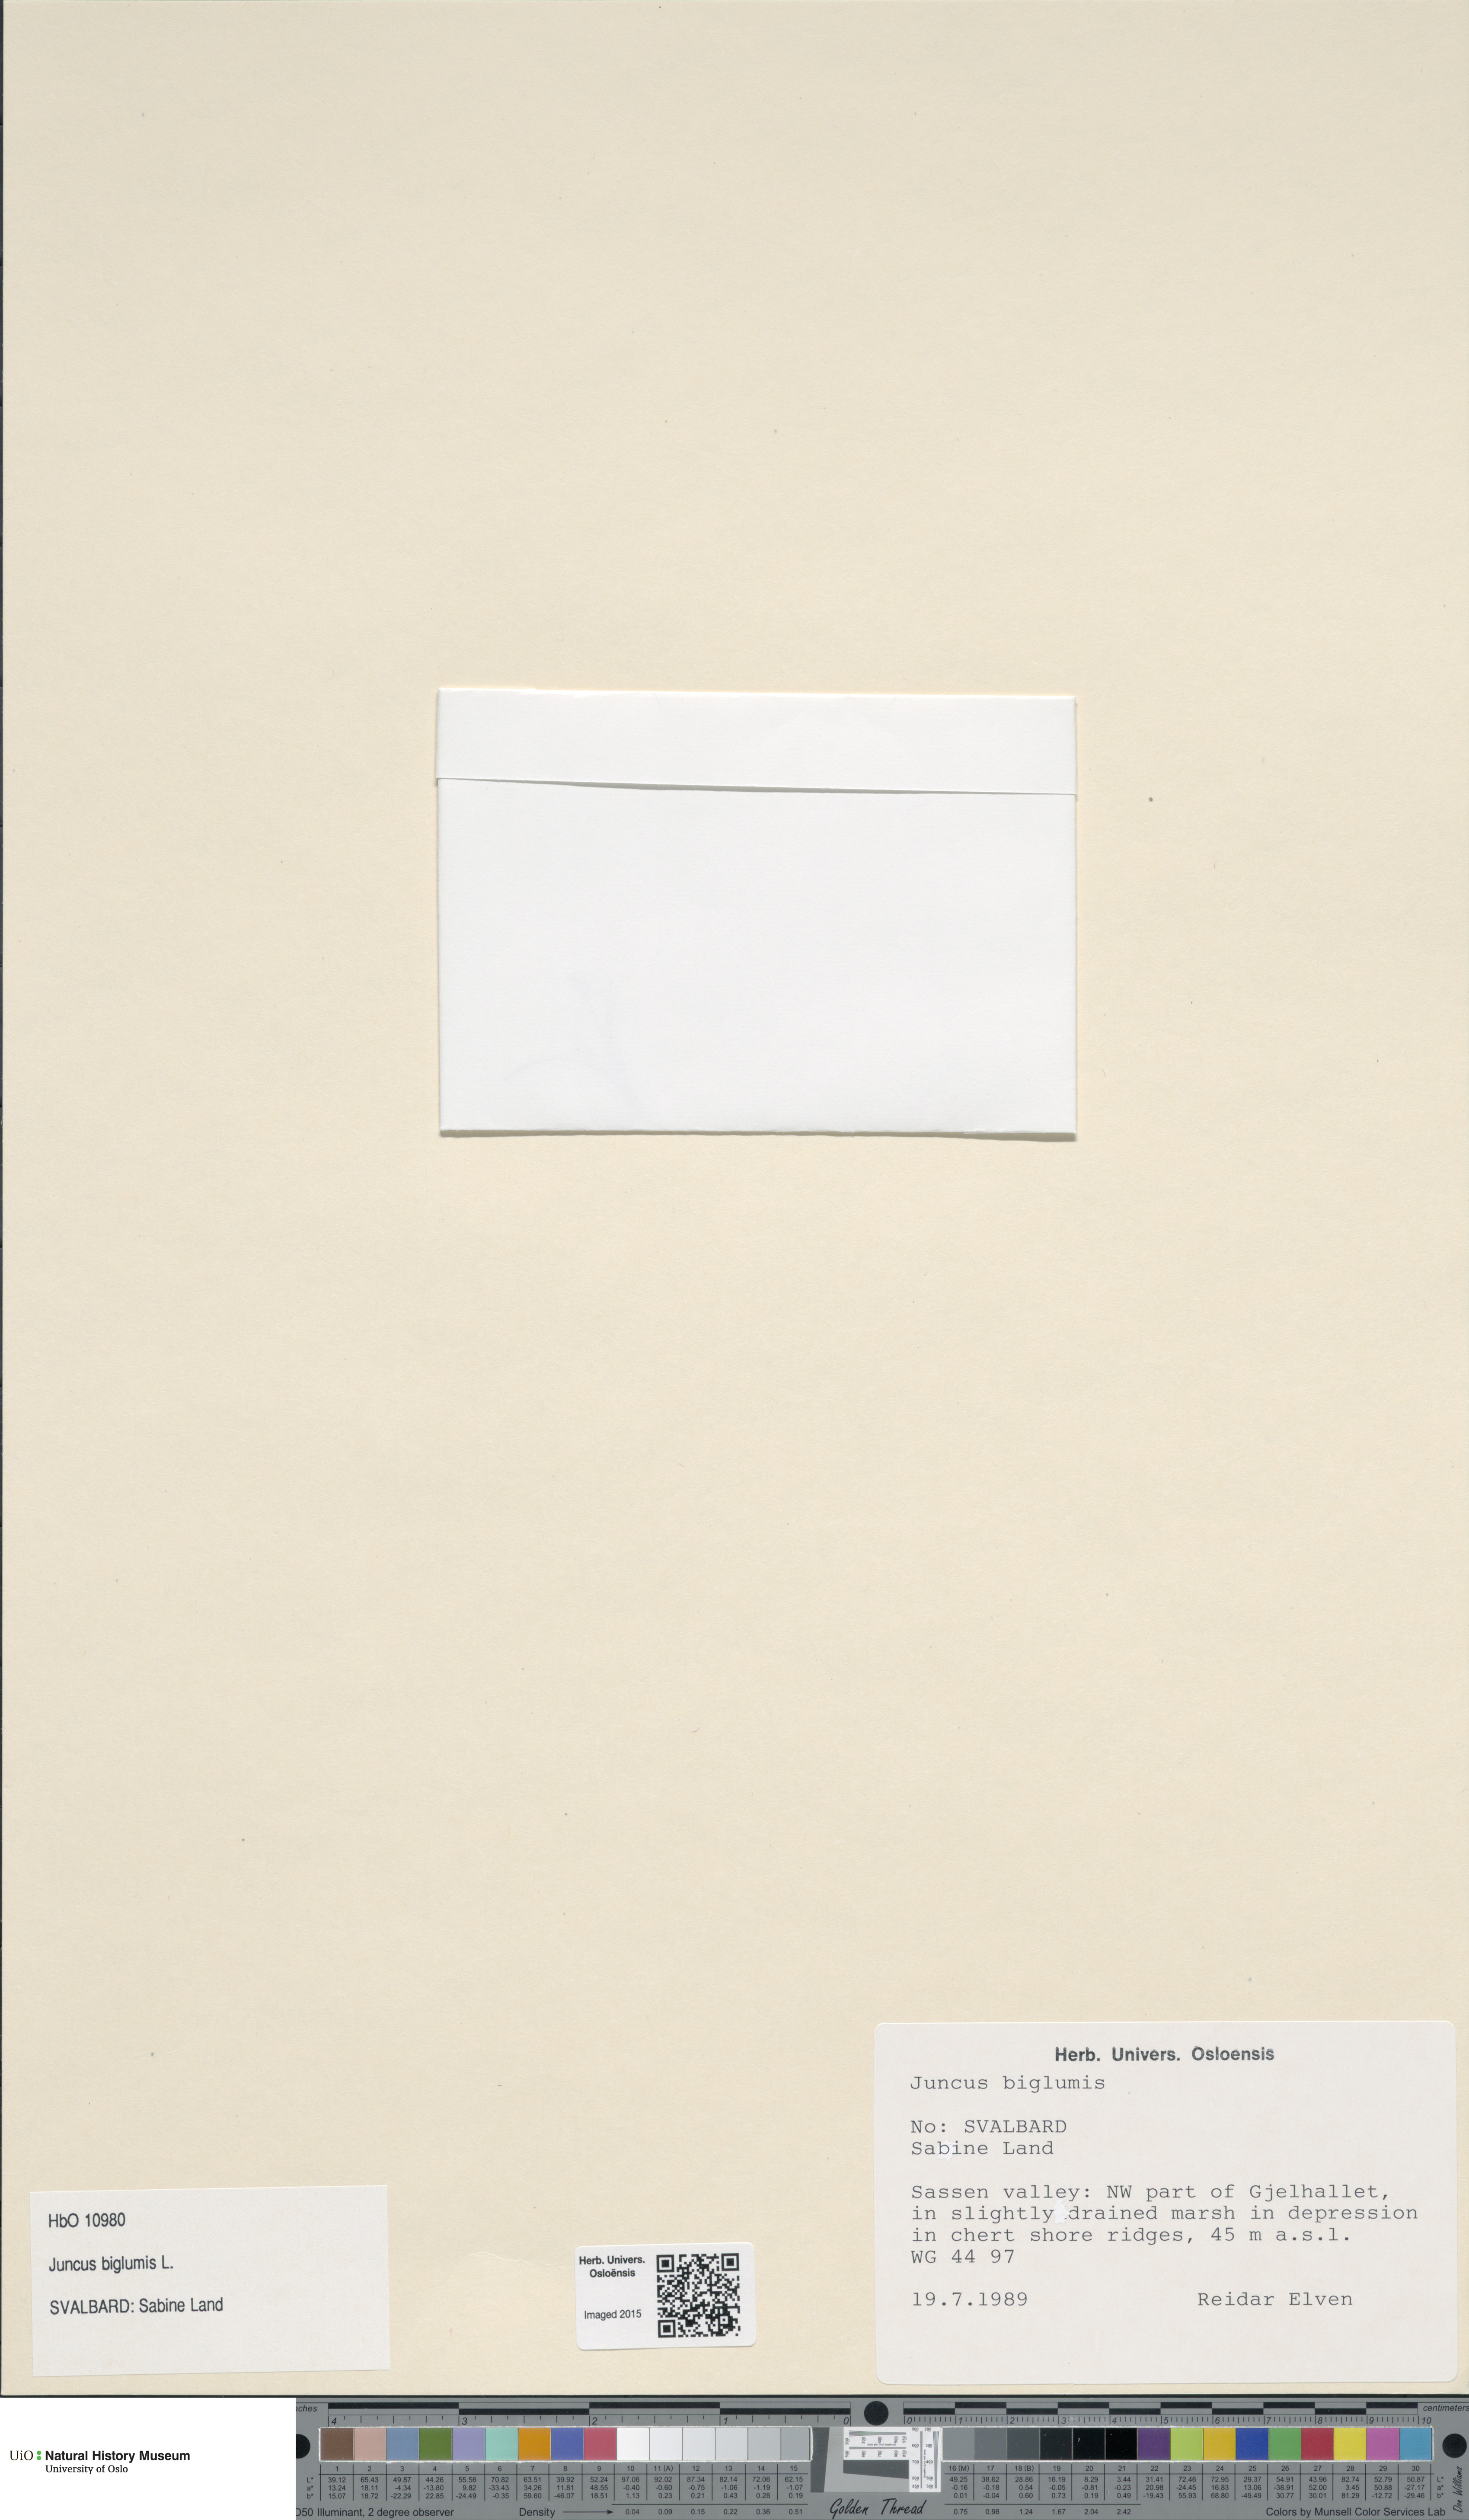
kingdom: Plantae
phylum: Tracheophyta
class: Liliopsida
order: Poales
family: Juncaceae
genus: Juncus
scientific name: Juncus biglumis
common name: Two-flowered rush
